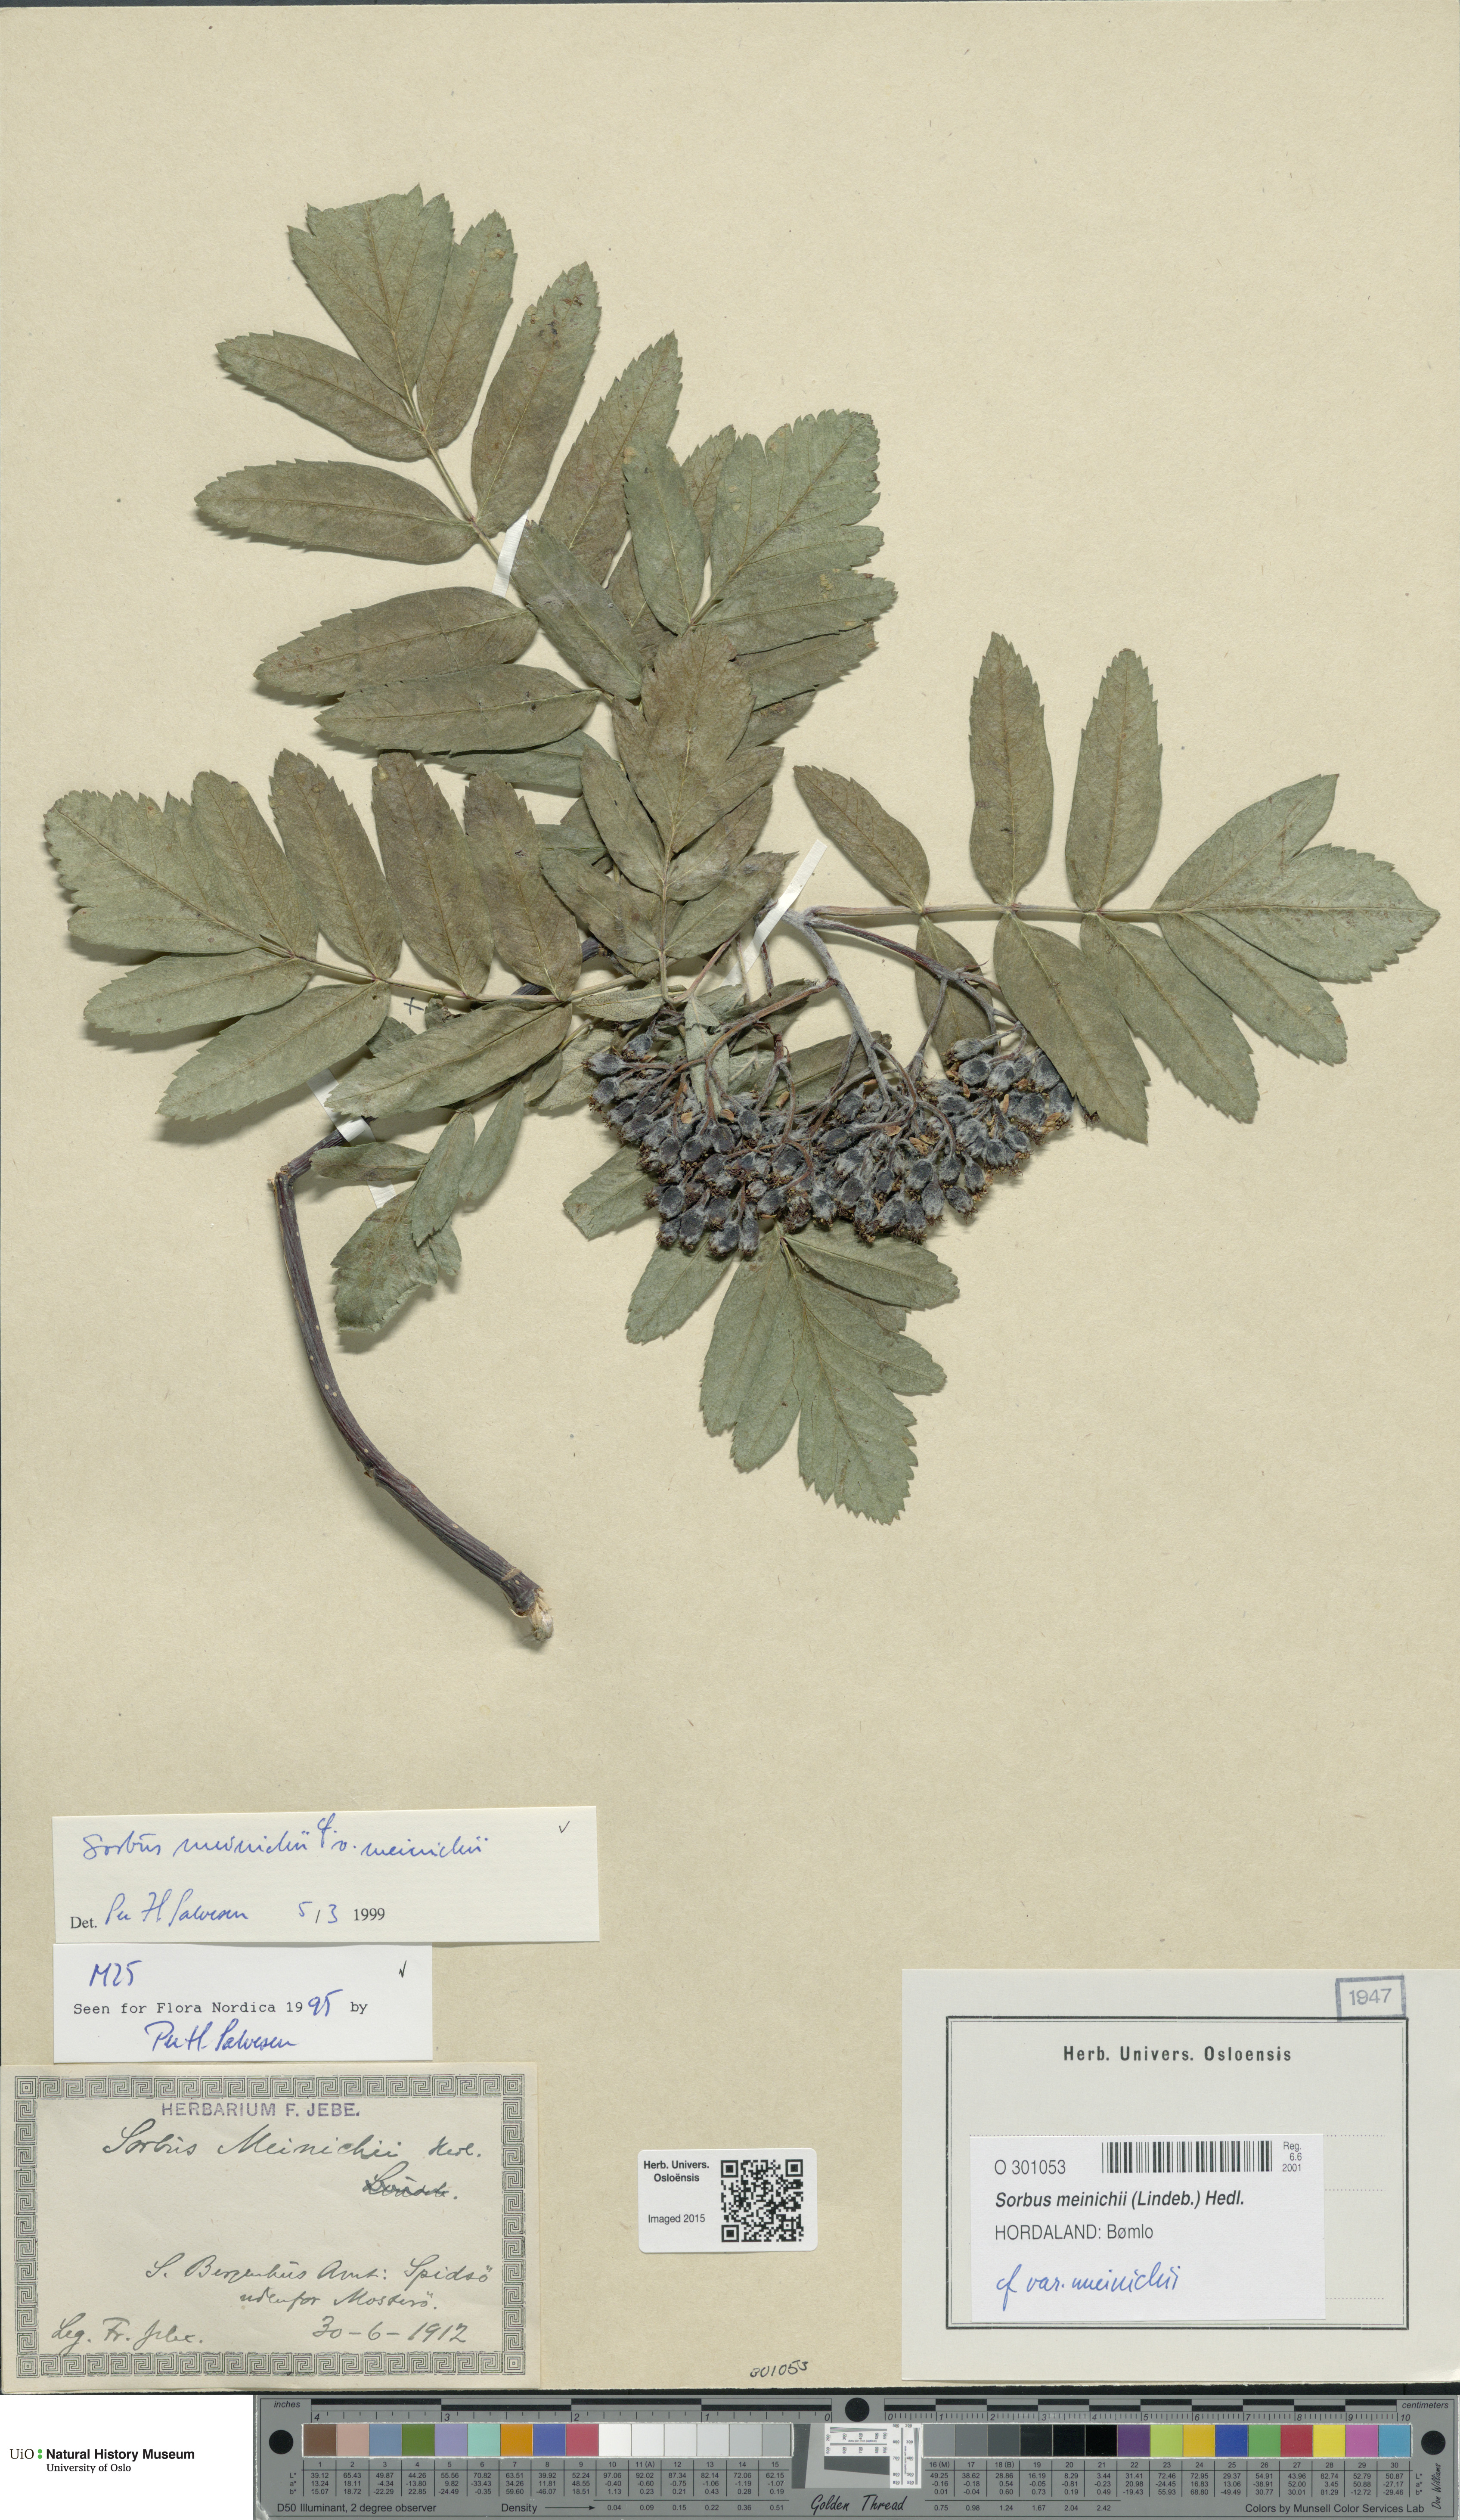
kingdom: Plantae
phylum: Tracheophyta
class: Magnoliopsida
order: Rosales
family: Rosaceae
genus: Hedlundia
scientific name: Hedlundia meinichii
